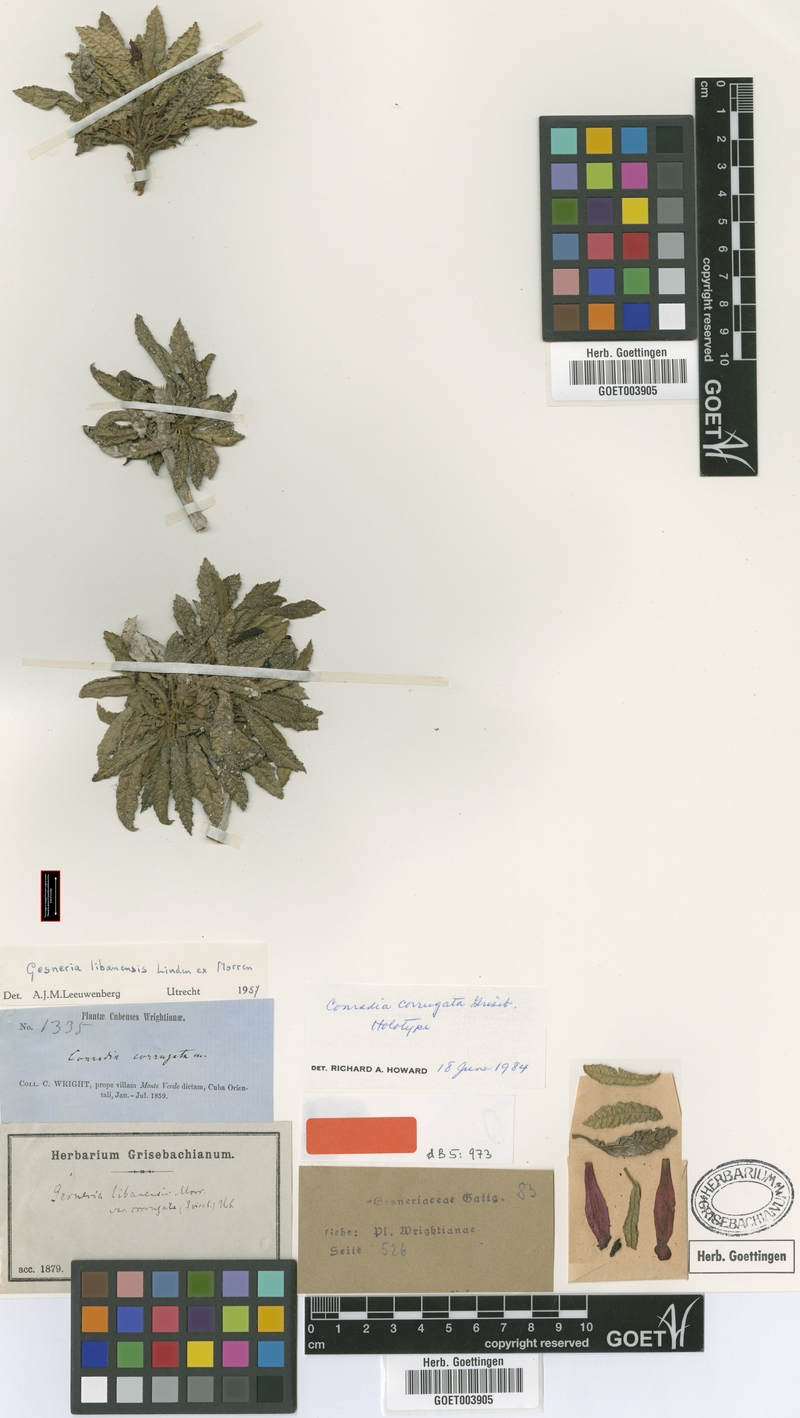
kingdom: Plantae
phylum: Tracheophyta
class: Magnoliopsida
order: Lamiales
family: Gesneriaceae
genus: Gesneria
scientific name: Gesneria libanensis
